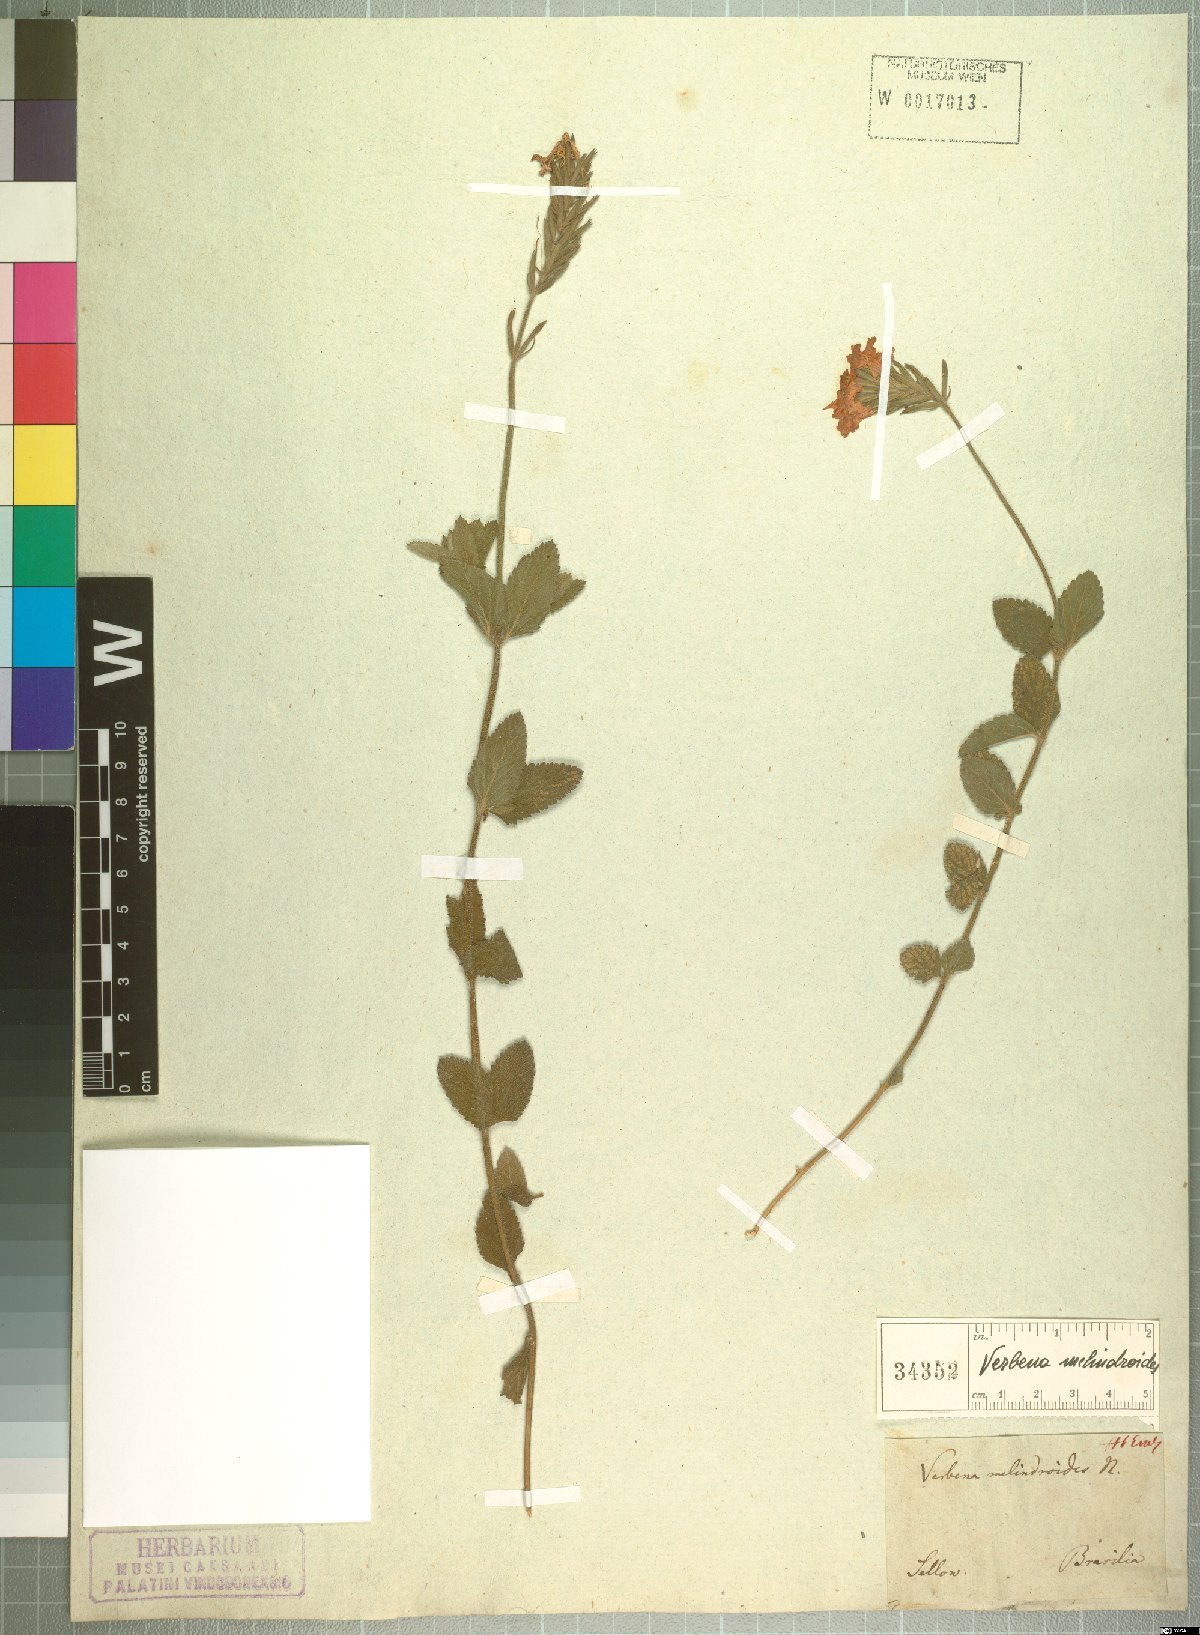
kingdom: Plantae
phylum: Tracheophyta
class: Magnoliopsida
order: Lamiales
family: Verbenaceae
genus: Verbena
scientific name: Verbena peruviana
